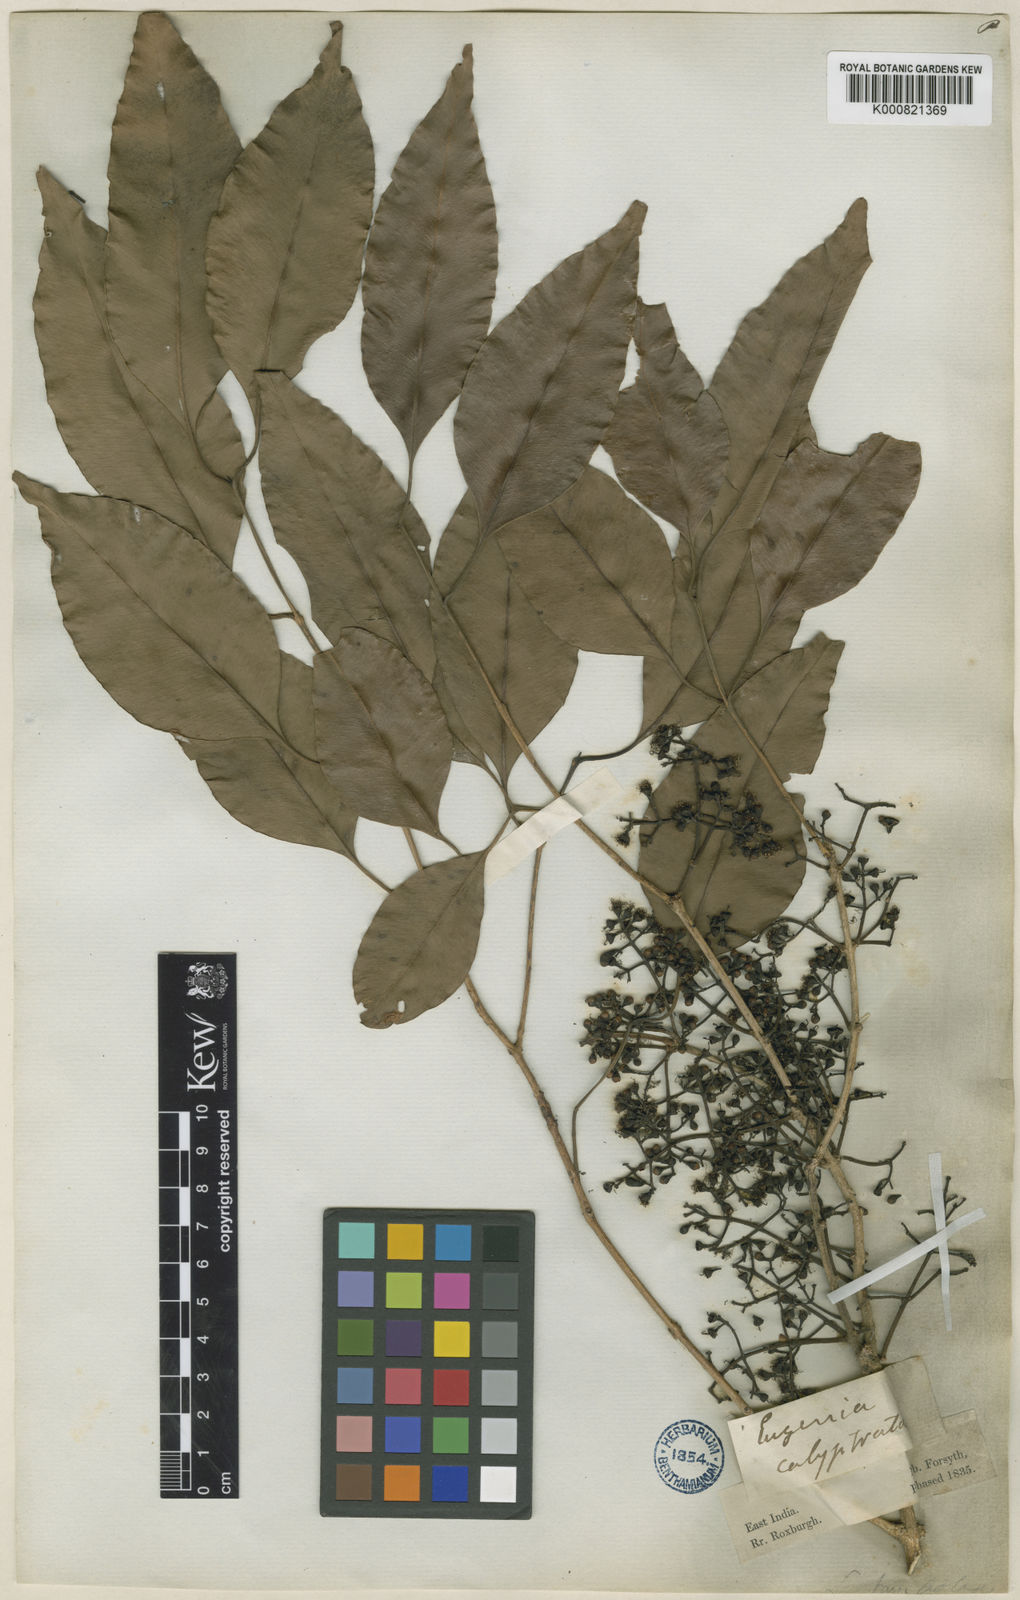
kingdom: Plantae
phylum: Tracheophyta
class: Magnoliopsida
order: Myrtales
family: Myrtaceae
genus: Syzygium
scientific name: Syzygium cumini
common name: Java plum
